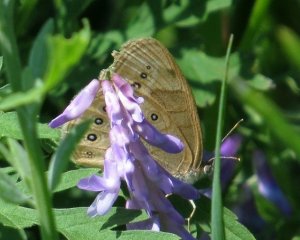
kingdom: Animalia
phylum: Arthropoda
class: Insecta
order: Lepidoptera
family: Nymphalidae
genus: Lethe
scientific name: Lethe eurydice
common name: Eyed Brown
